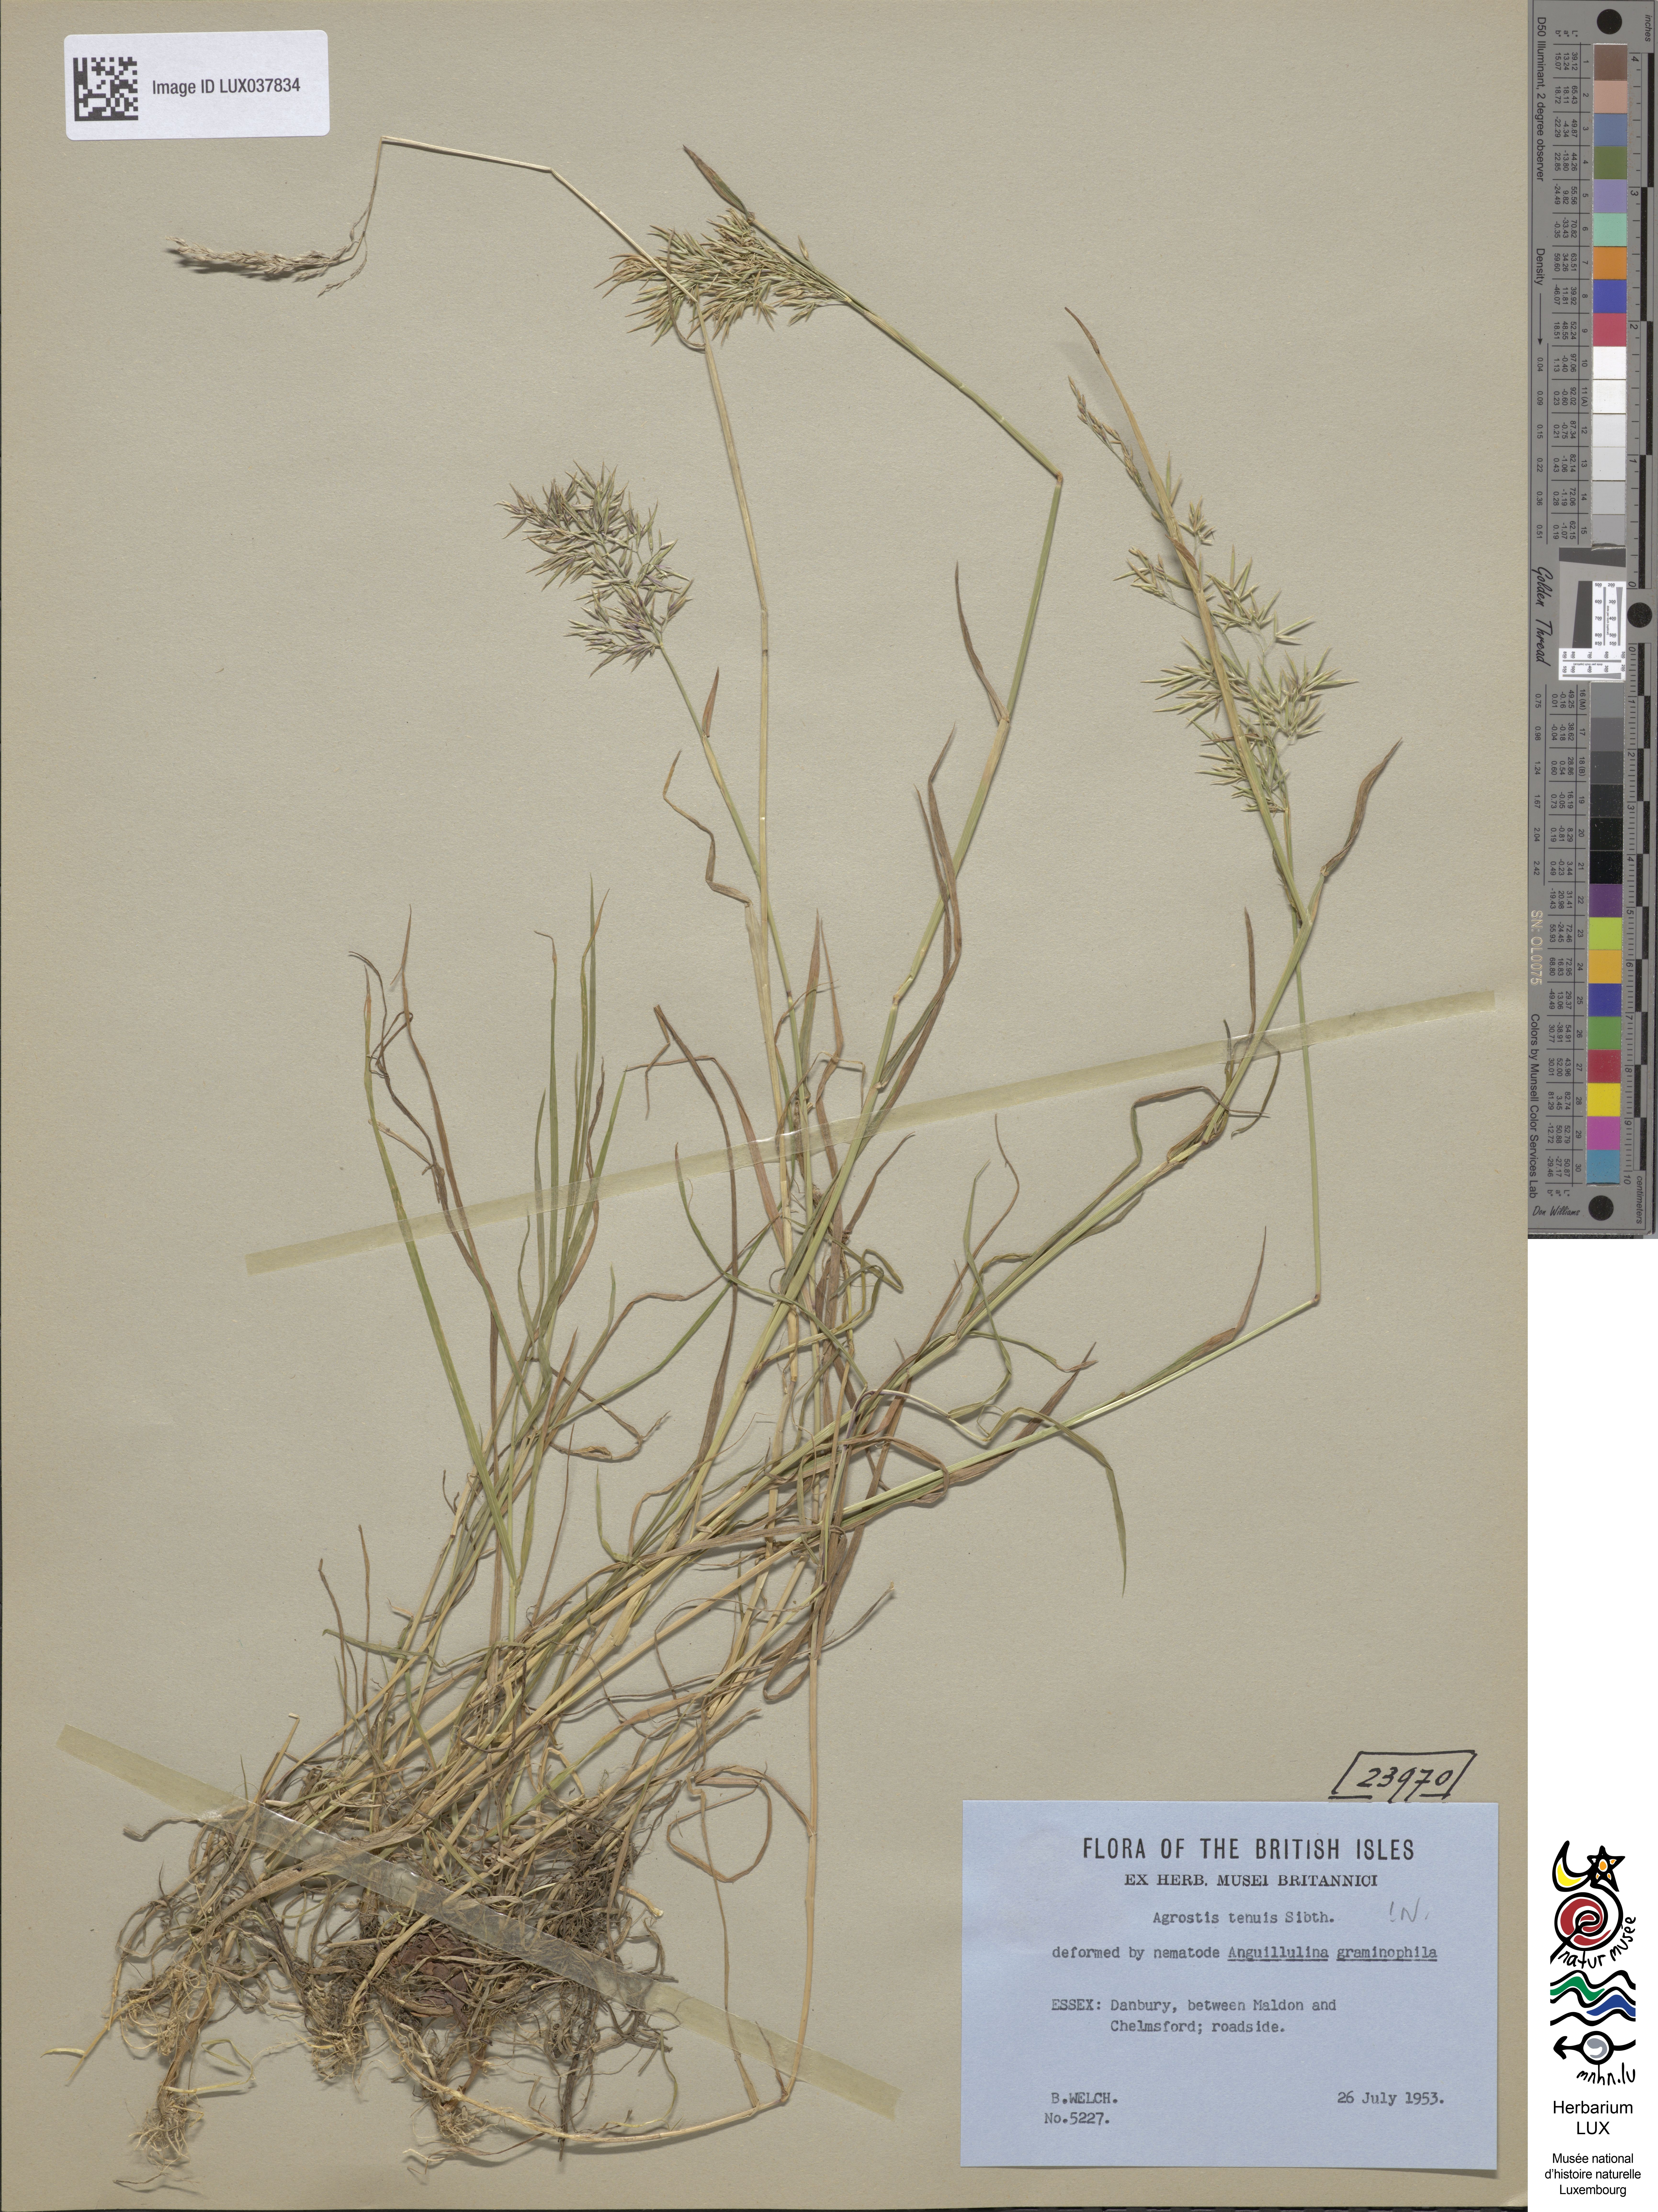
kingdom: Animalia
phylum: Arthropoda
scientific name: Arthropoda
